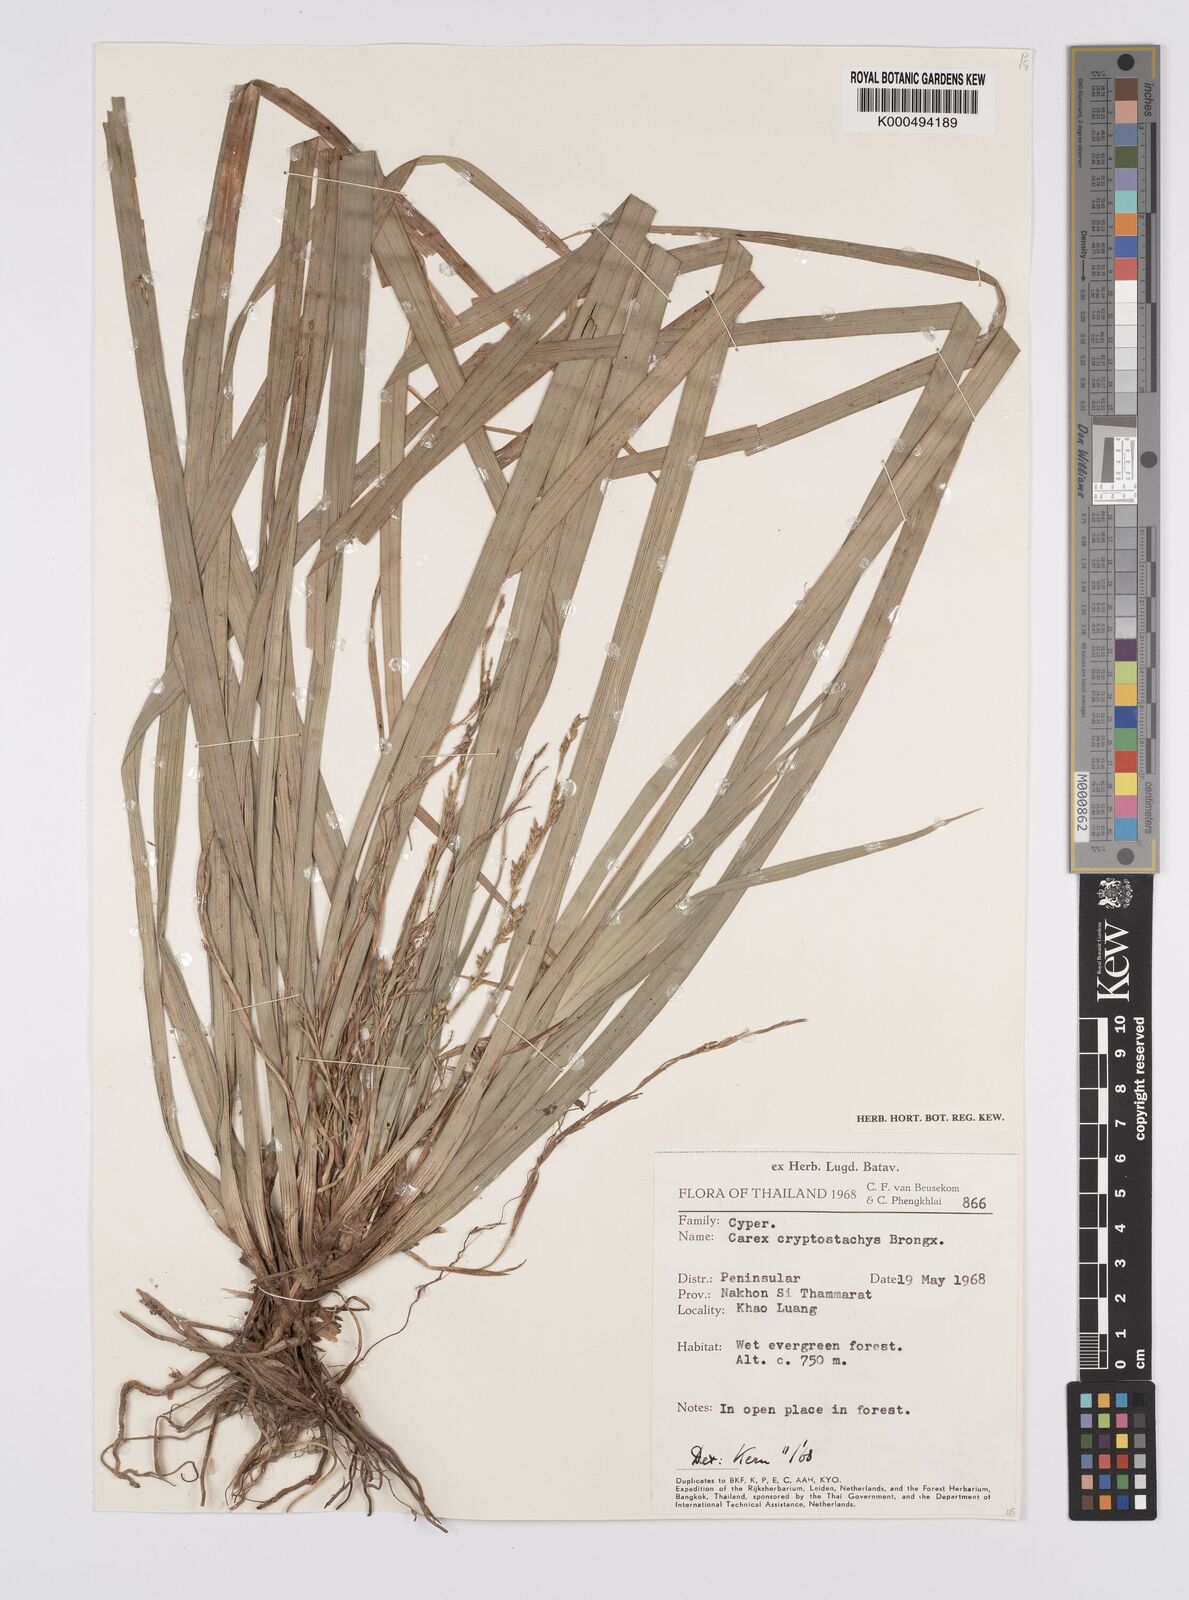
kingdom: Plantae
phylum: Tracheophyta
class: Liliopsida
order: Poales
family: Cyperaceae
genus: Carex
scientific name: Carex cryptostachys
